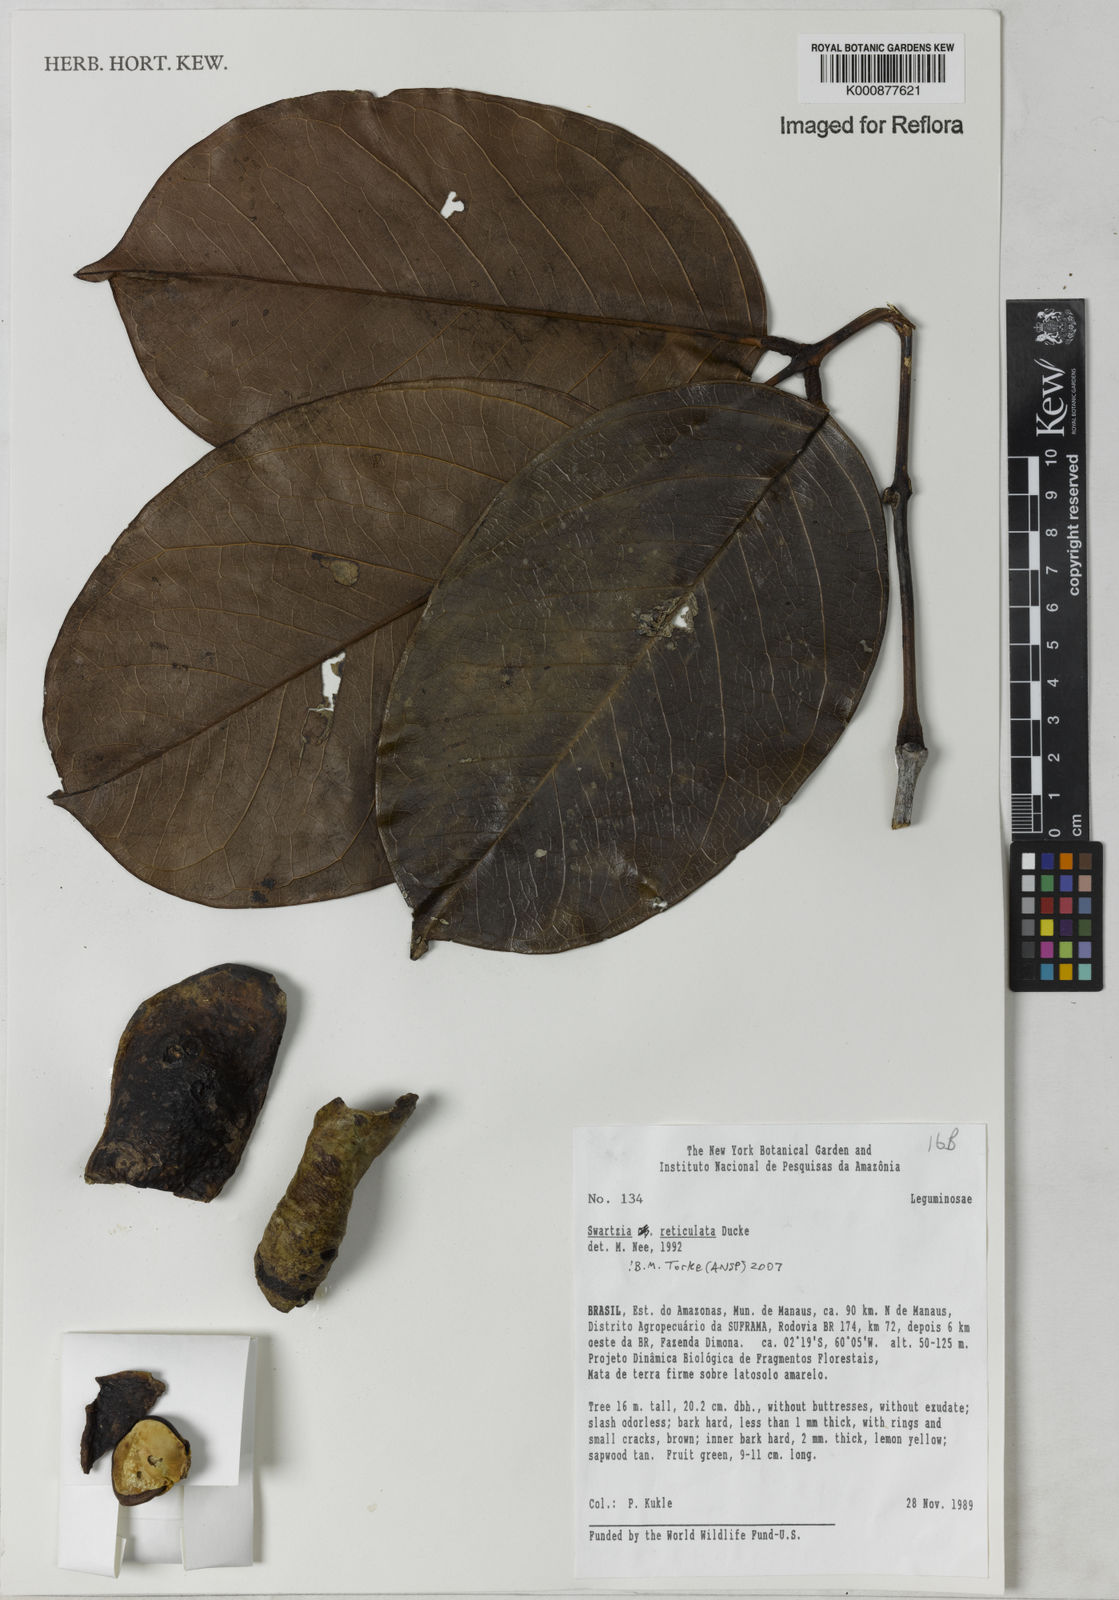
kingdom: Plantae
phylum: Tracheophyta
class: Magnoliopsida
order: Fabales
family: Fabaceae
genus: Swartzia
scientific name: Swartzia reticulata
